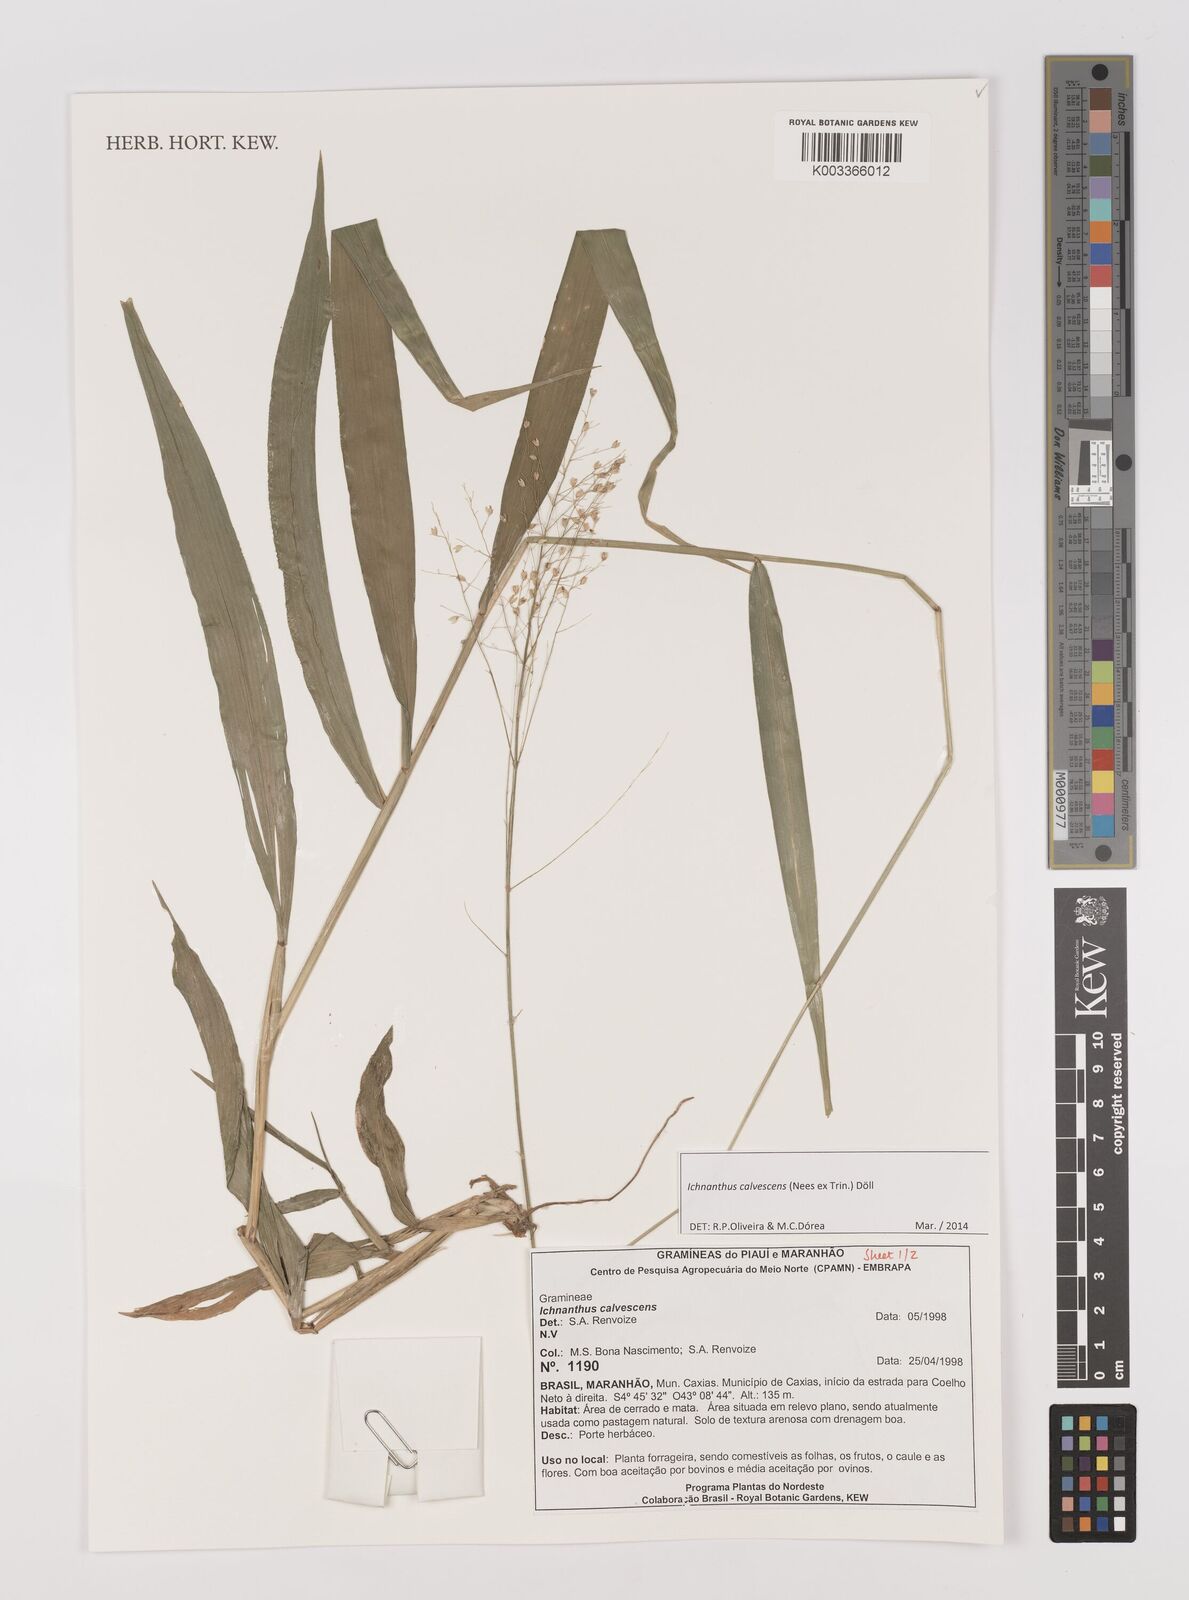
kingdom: Plantae
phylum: Tracheophyta
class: Liliopsida
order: Poales
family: Poaceae
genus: Ichnanthus
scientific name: Ichnanthus calvescens
